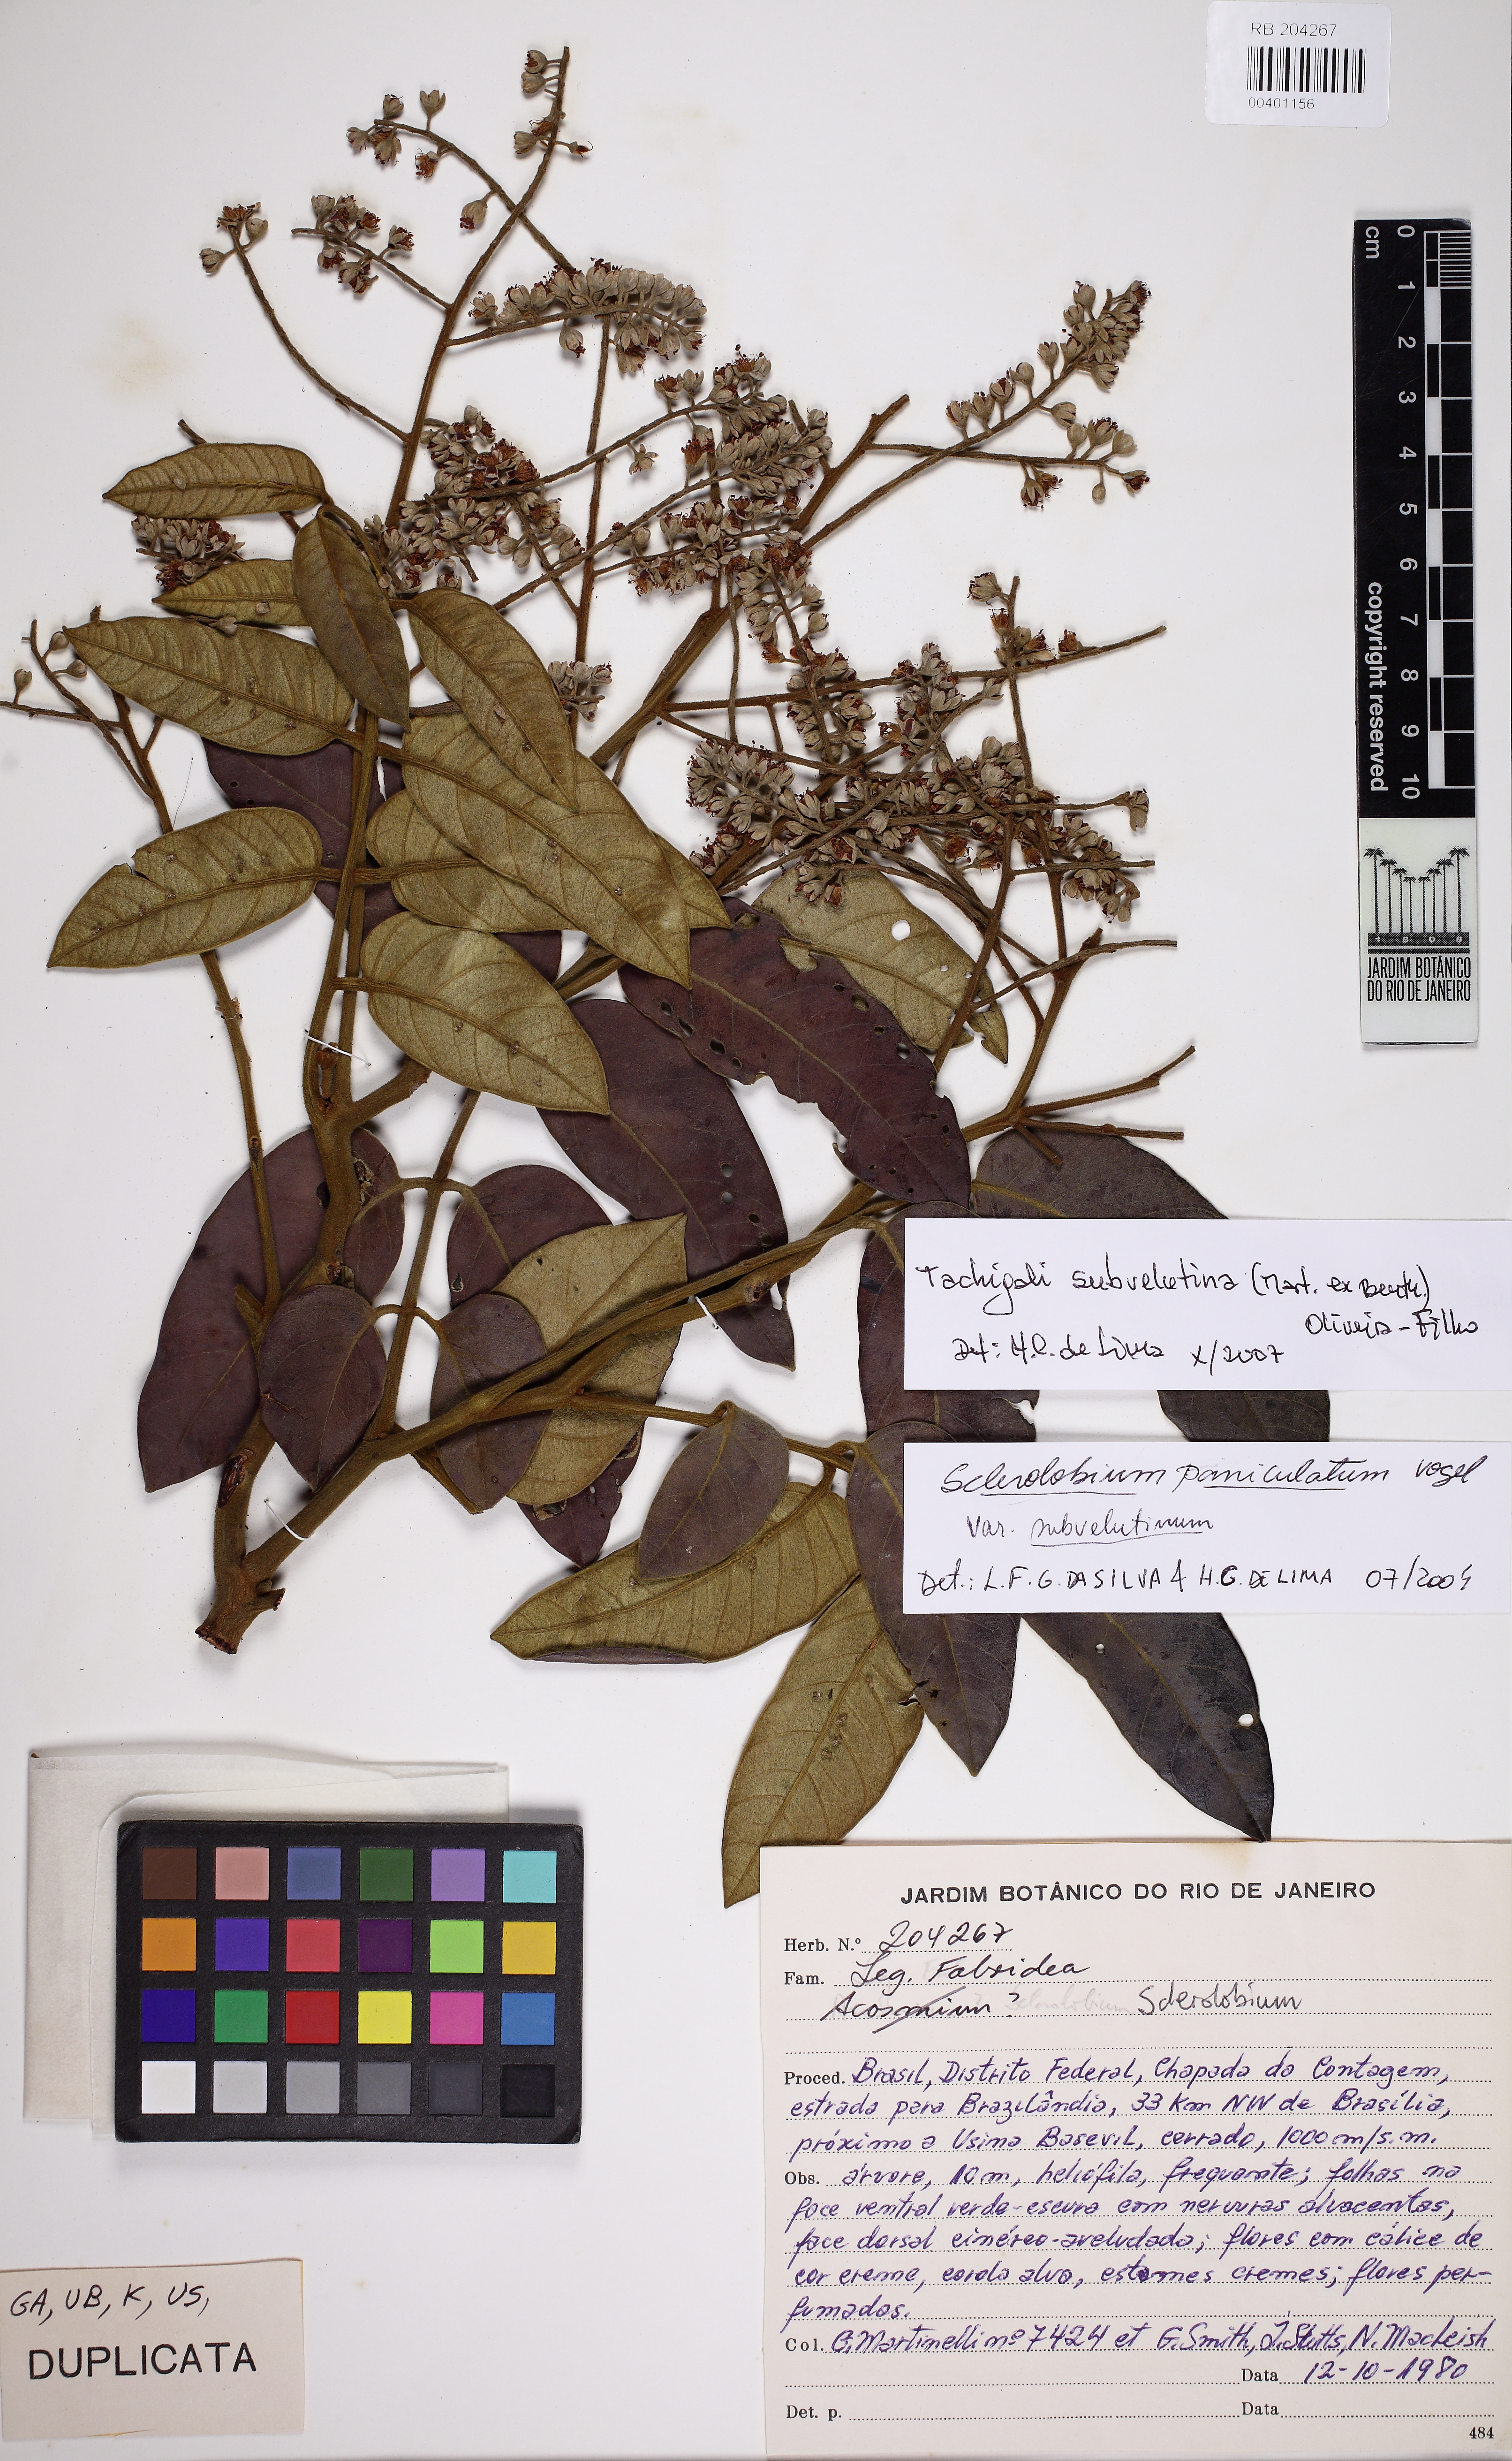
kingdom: Plantae
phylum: Tracheophyta
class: Magnoliopsida
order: Fabales
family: Fabaceae
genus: Tachigali
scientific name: Tachigali subvelutina
